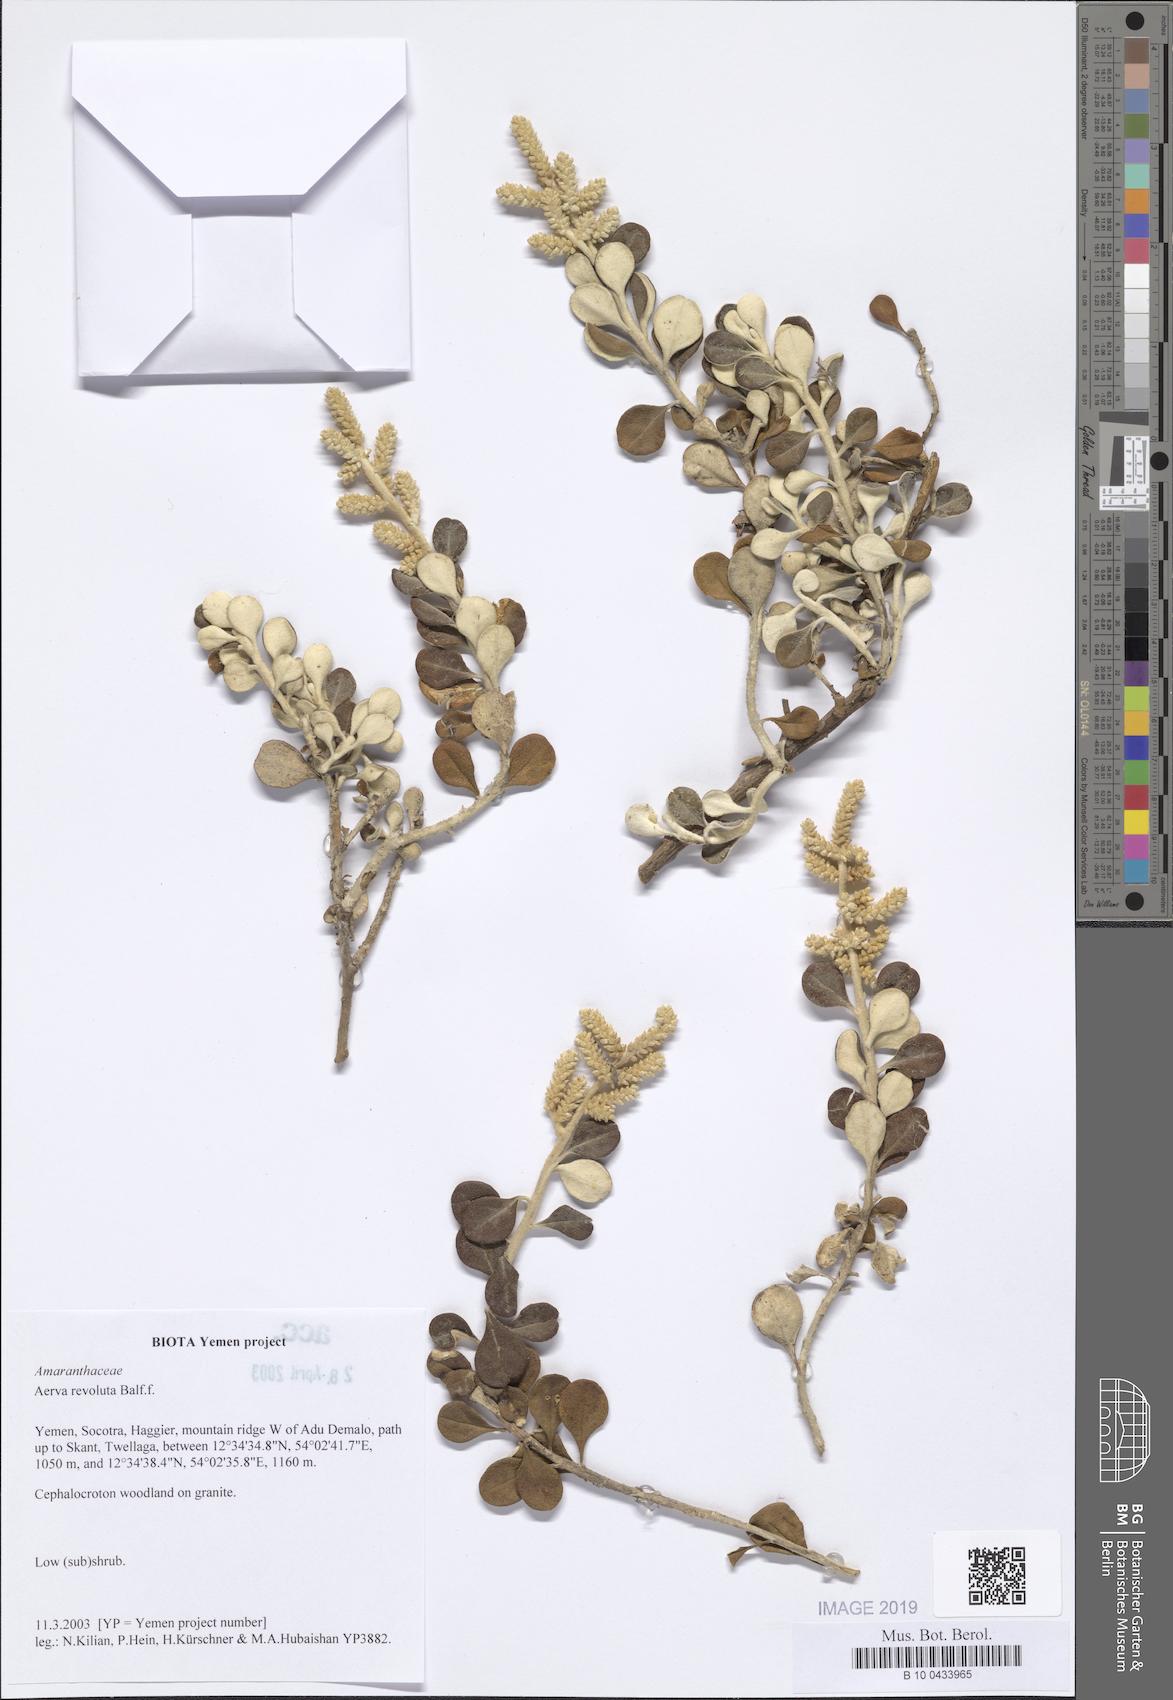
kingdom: Plantae
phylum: Tracheophyta
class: Magnoliopsida
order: Caryophyllales
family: Amaranthaceae
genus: Paraerva
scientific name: Paraerva revoluta
